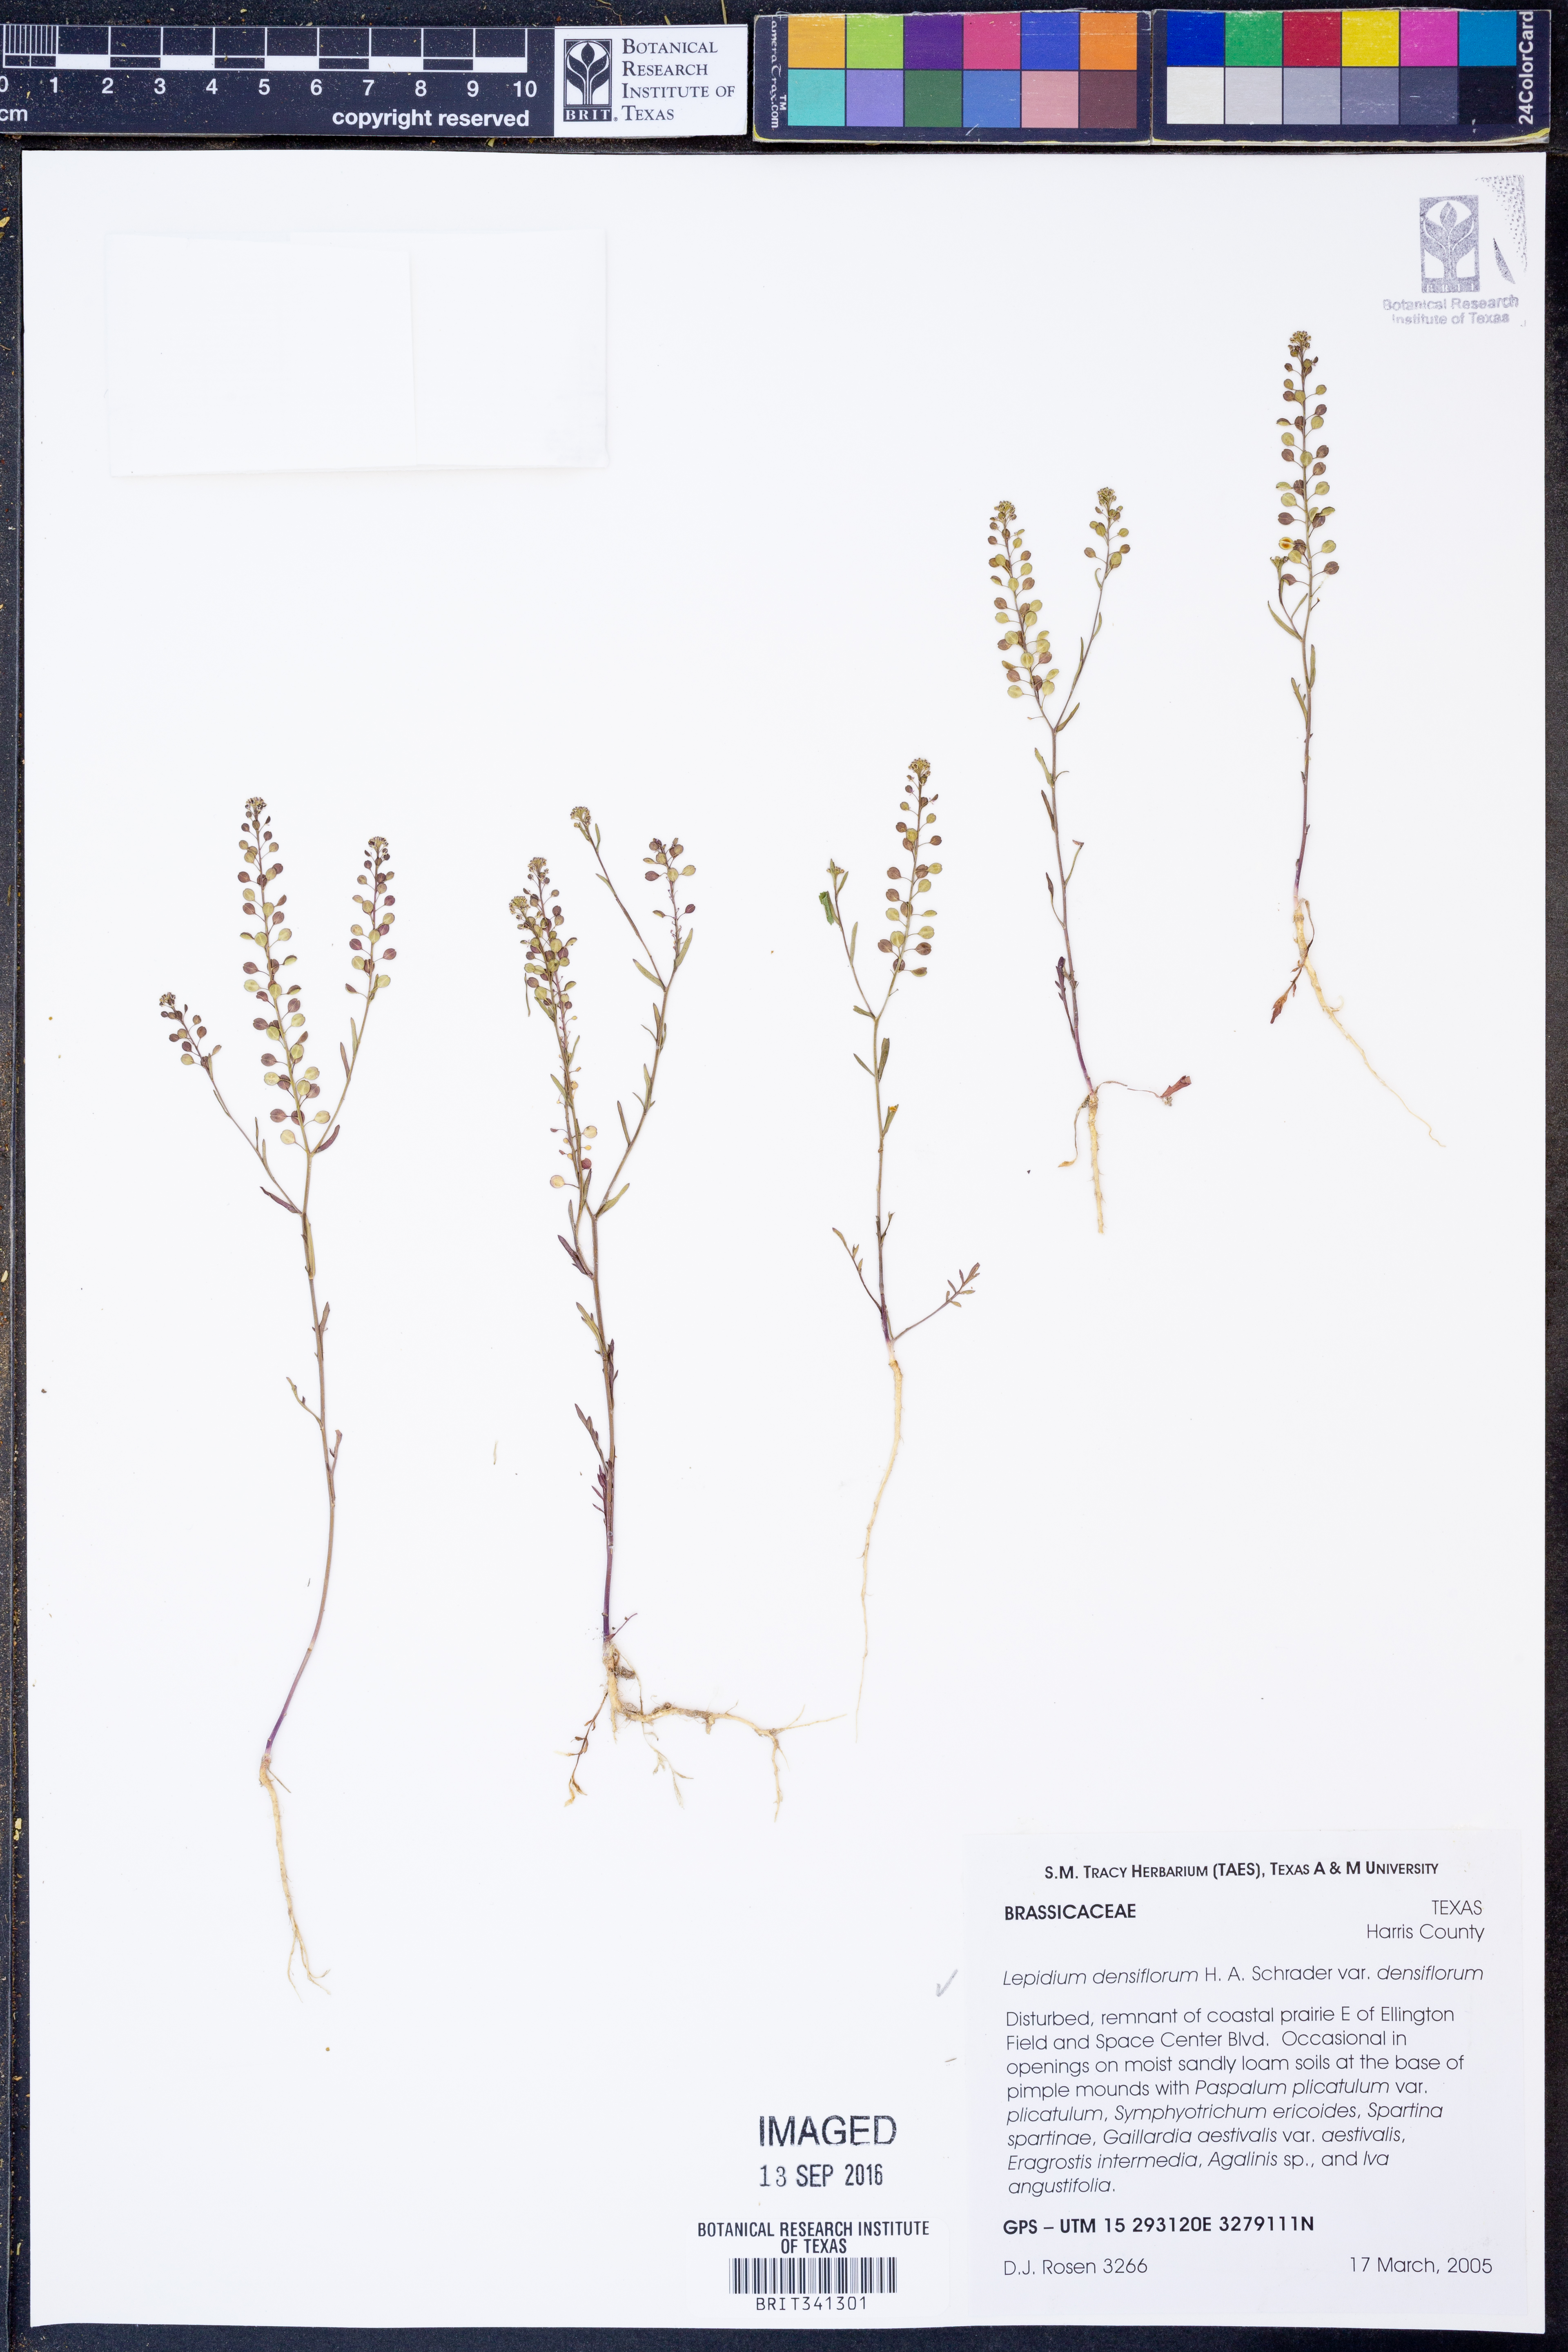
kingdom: Plantae
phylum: Tracheophyta
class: Magnoliopsida
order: Brassicales
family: Brassicaceae
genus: Lepidium
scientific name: Lepidium densiflorum
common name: Miner's pepperwort
